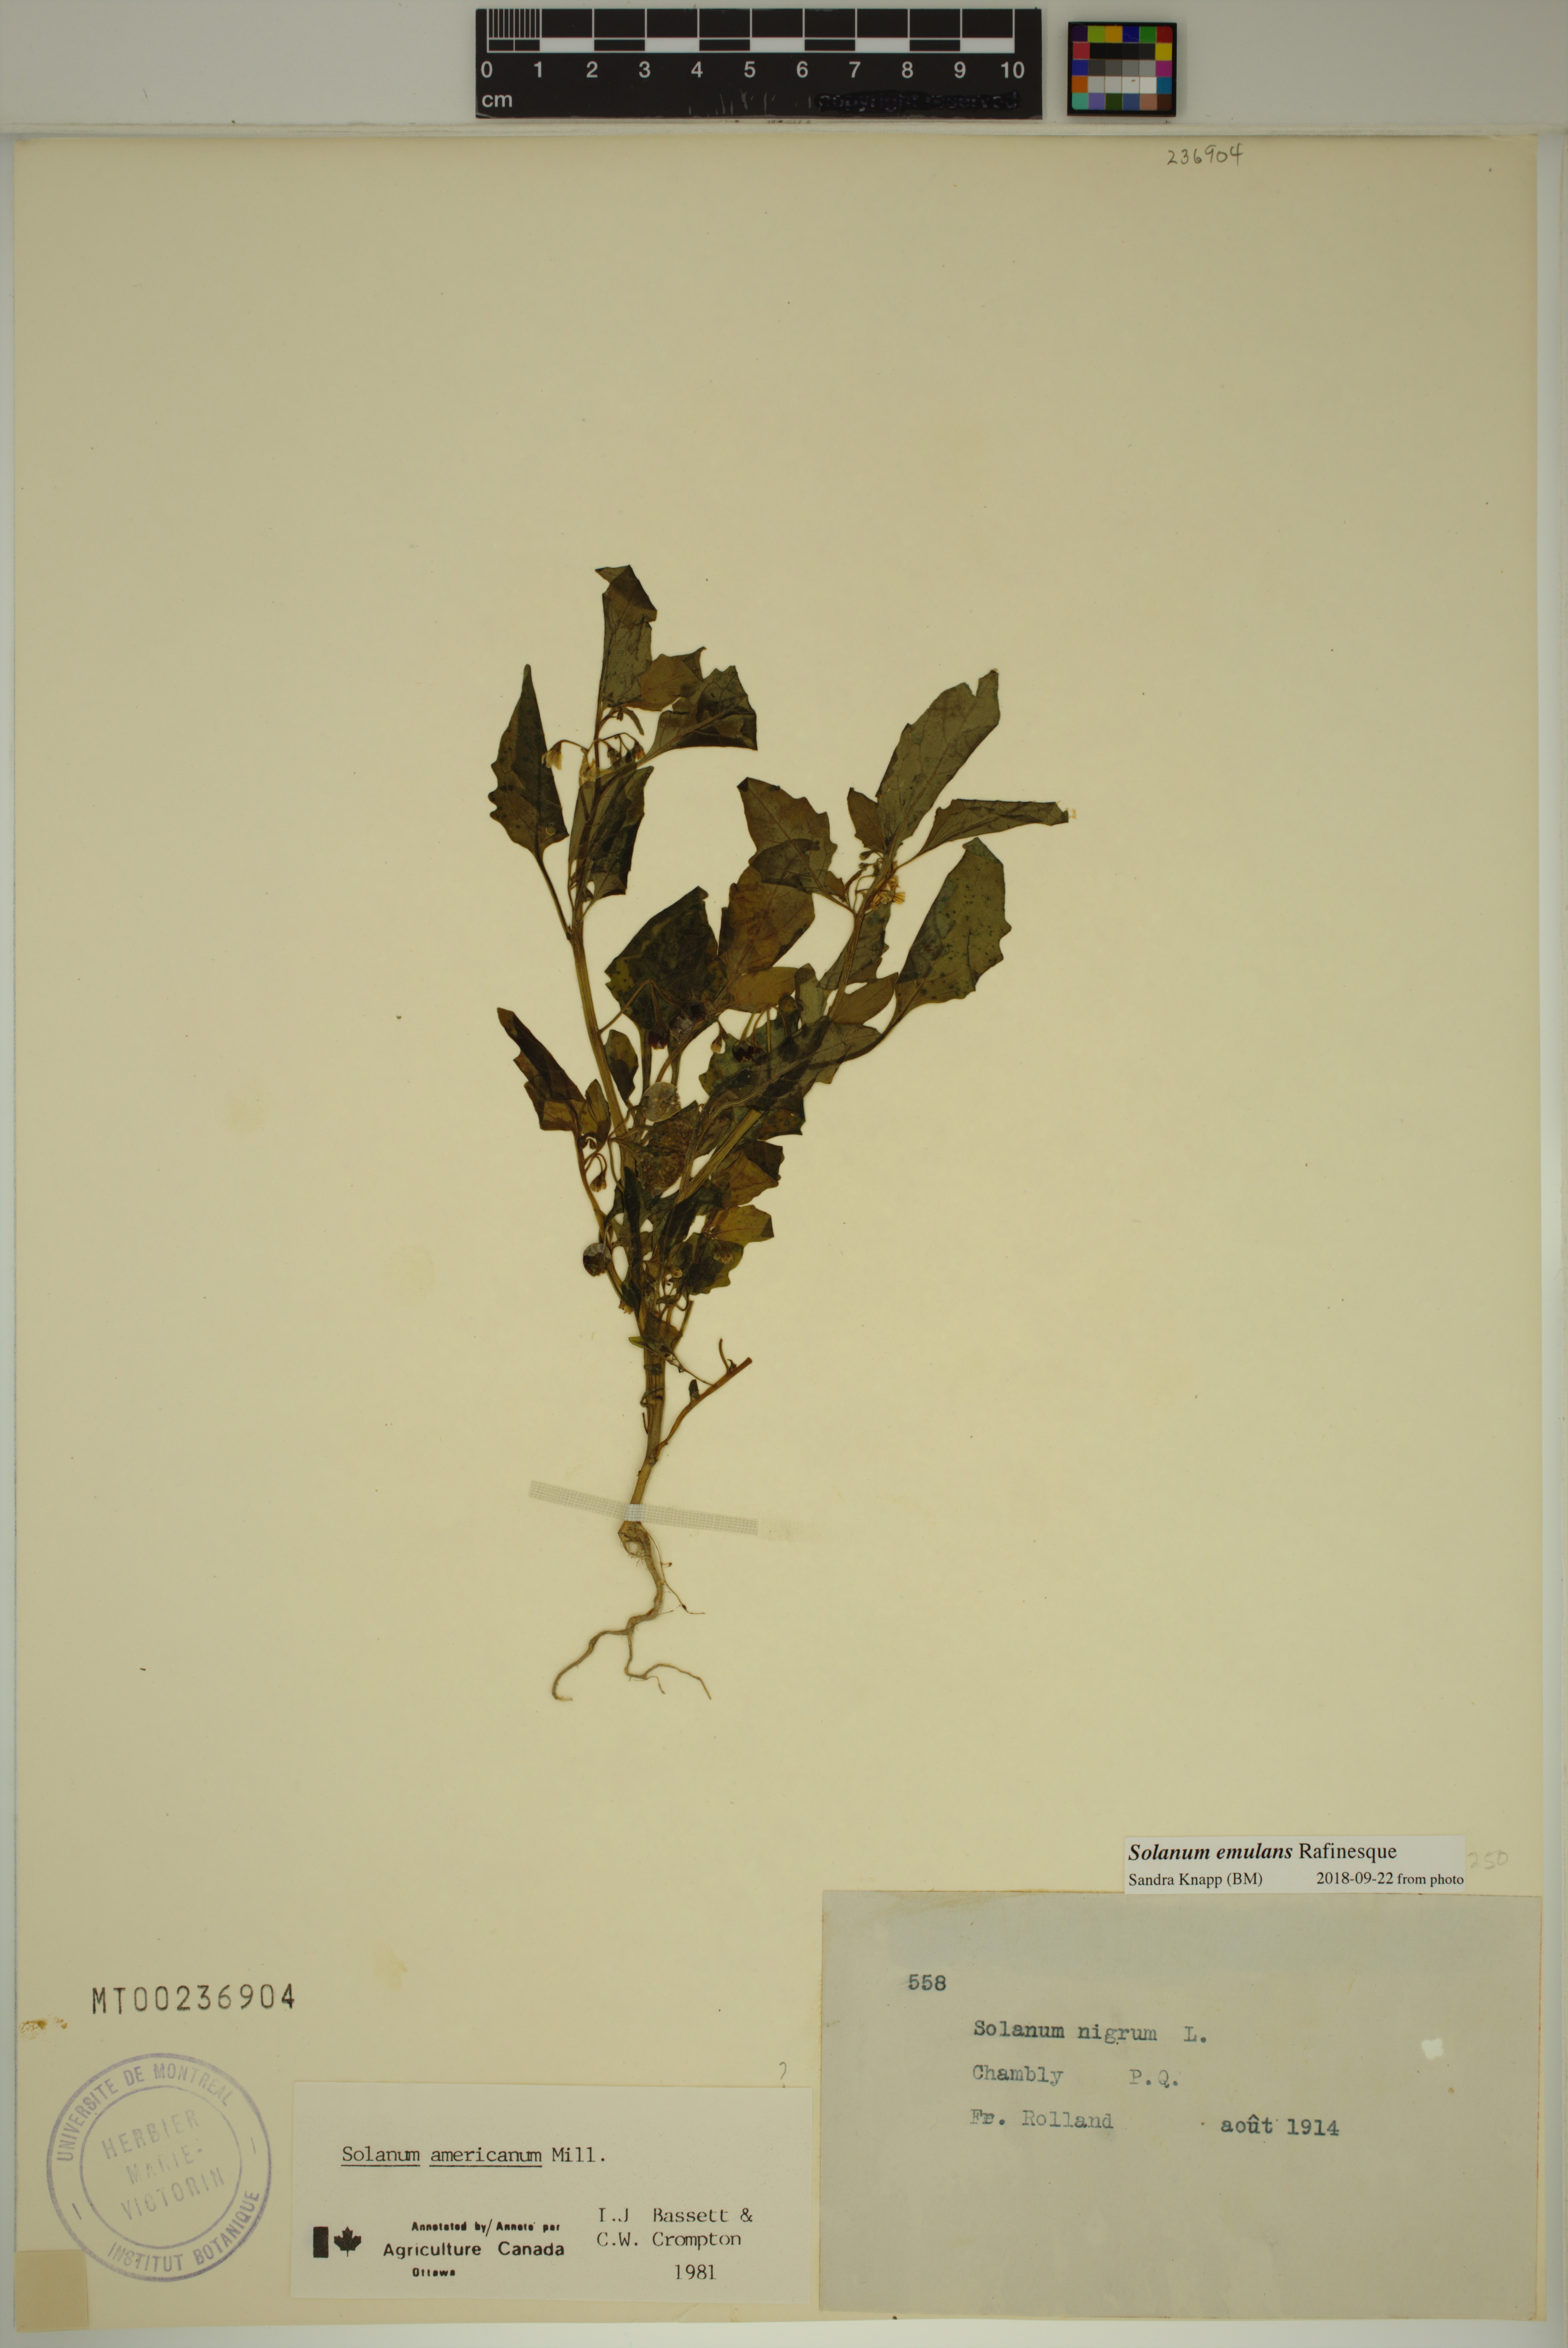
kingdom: Plantae
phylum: Tracheophyta
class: Magnoliopsida
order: Solanales
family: Solanaceae
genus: Solanum
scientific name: Solanum emulans
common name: Eastern black nightshade
